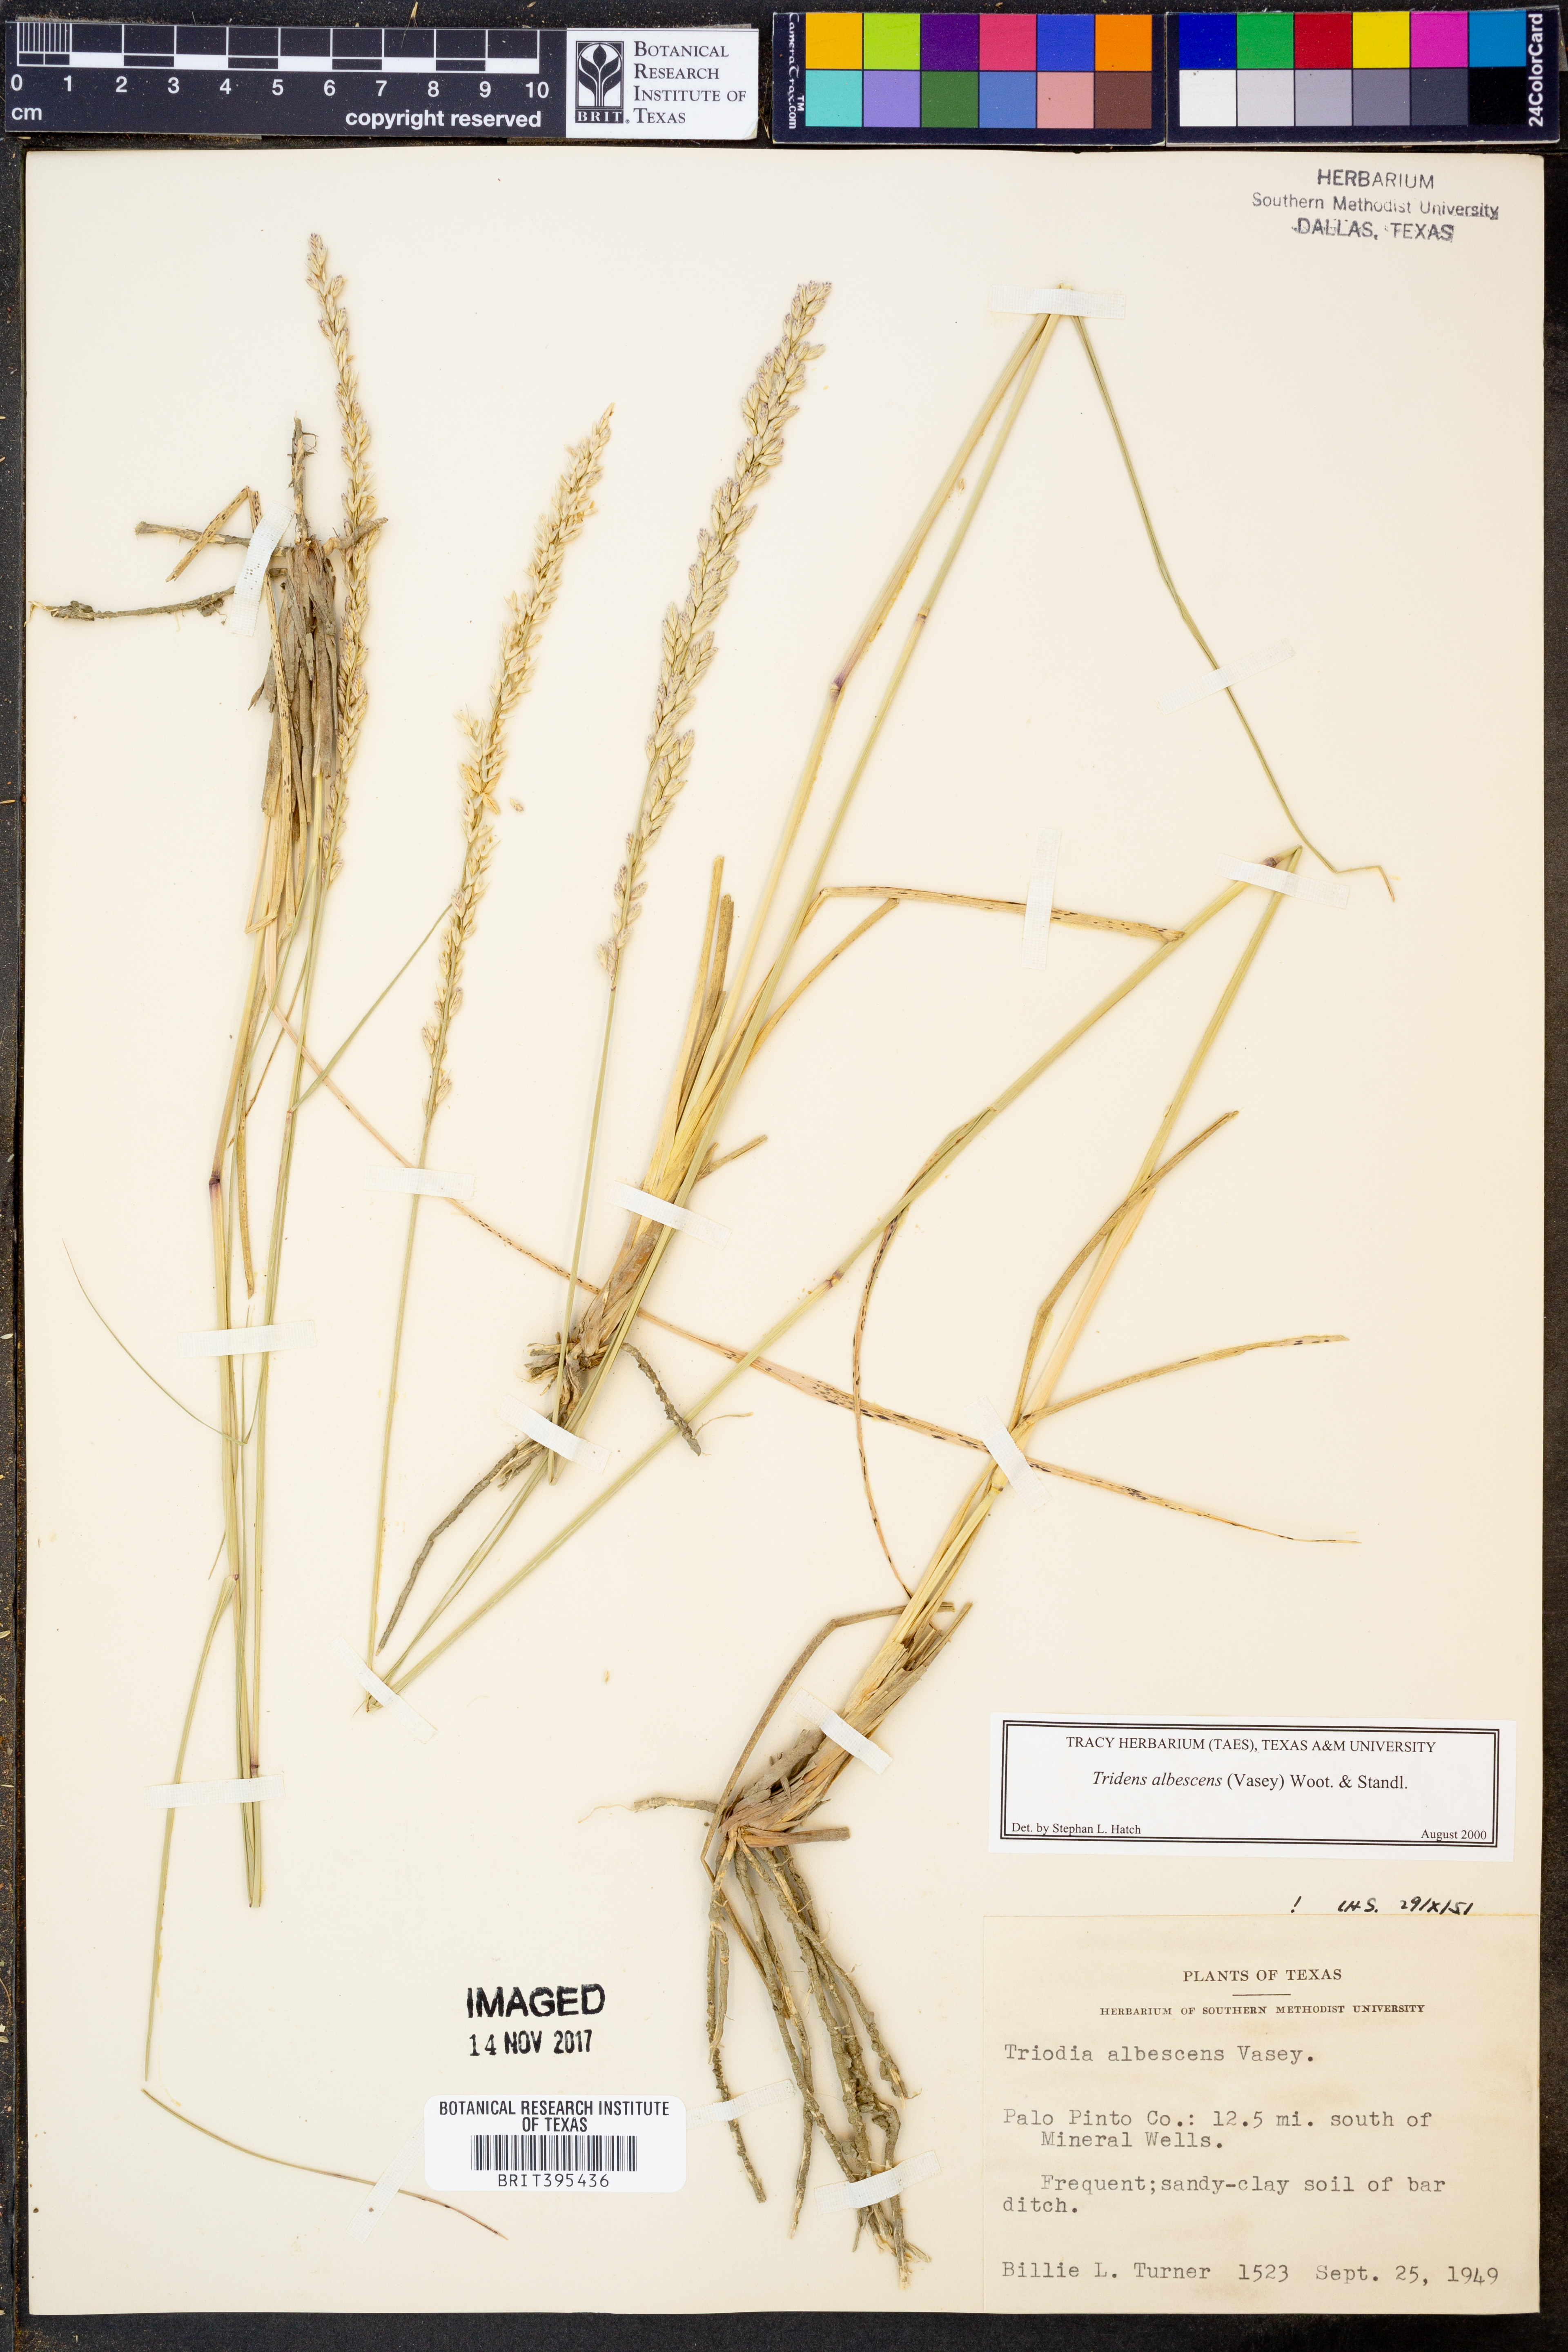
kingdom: Plantae
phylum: Tracheophyta
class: Liliopsida
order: Poales
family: Poaceae
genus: Tridens
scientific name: Tridens albescens
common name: White tridens
